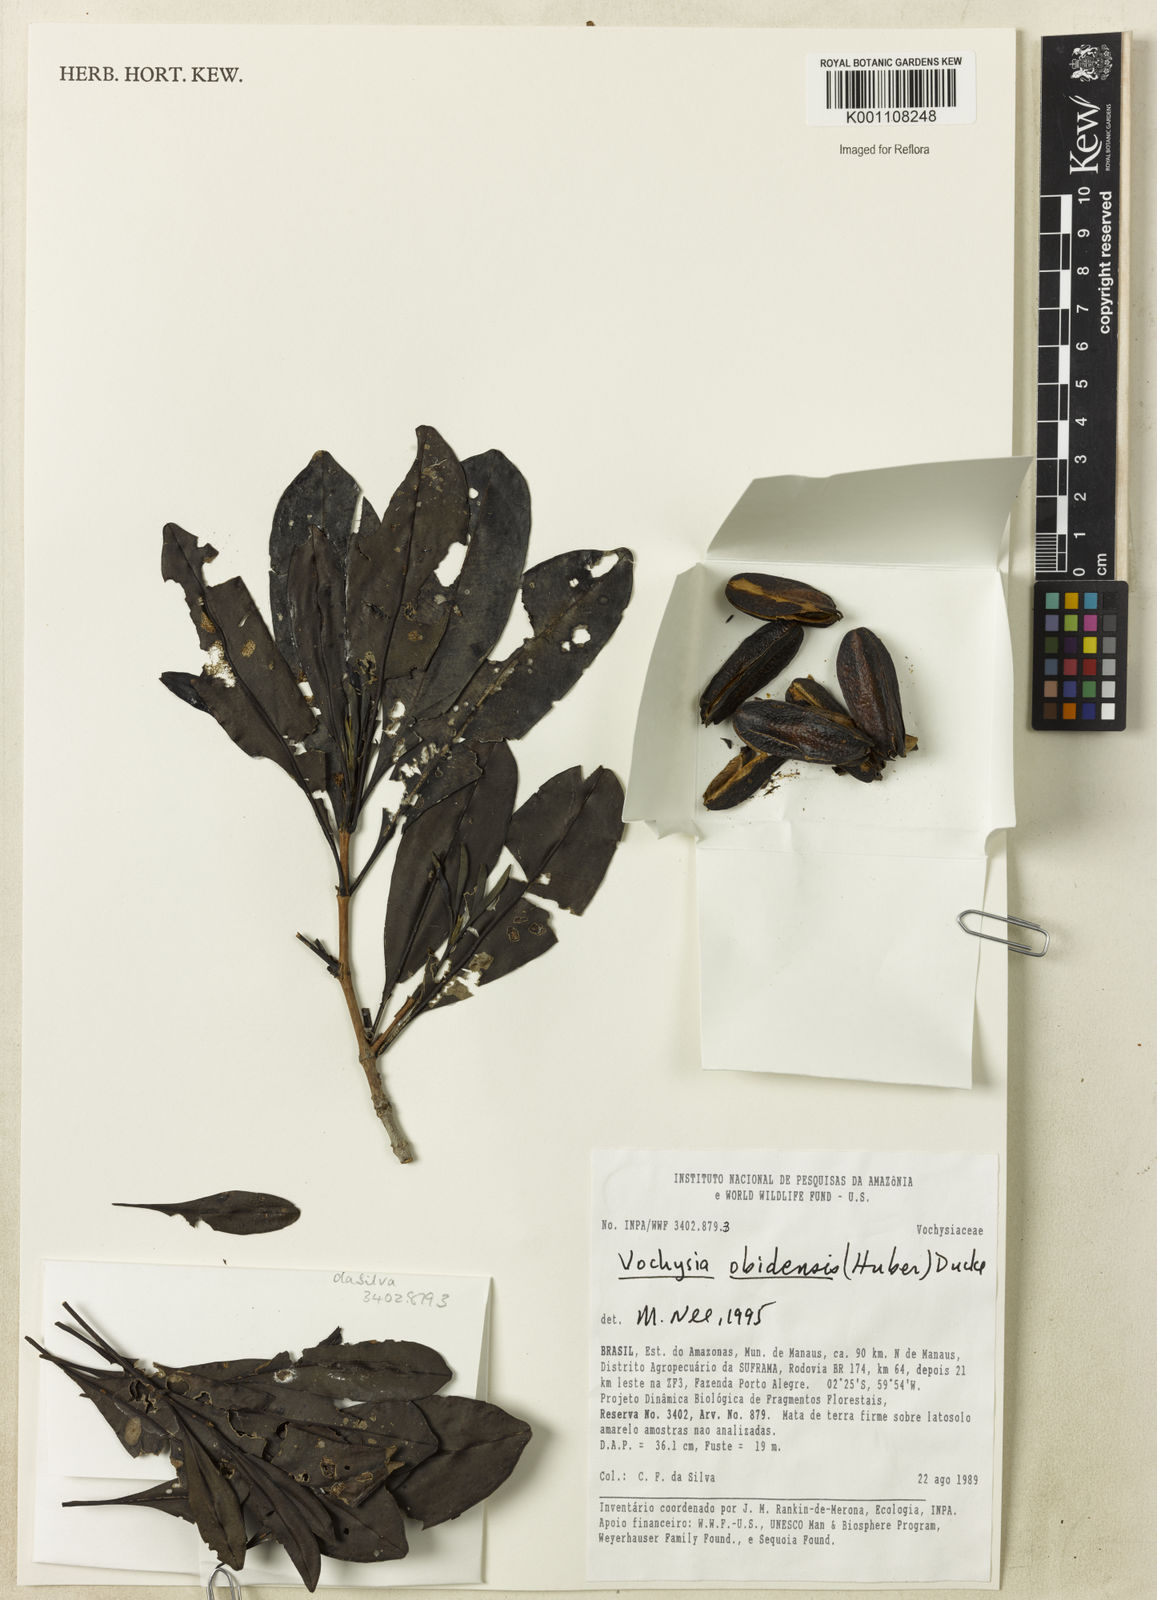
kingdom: Plantae
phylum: Tracheophyta
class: Magnoliopsida
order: Myrtales
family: Vochysiaceae
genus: Vochysia
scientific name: Vochysia obidensis
